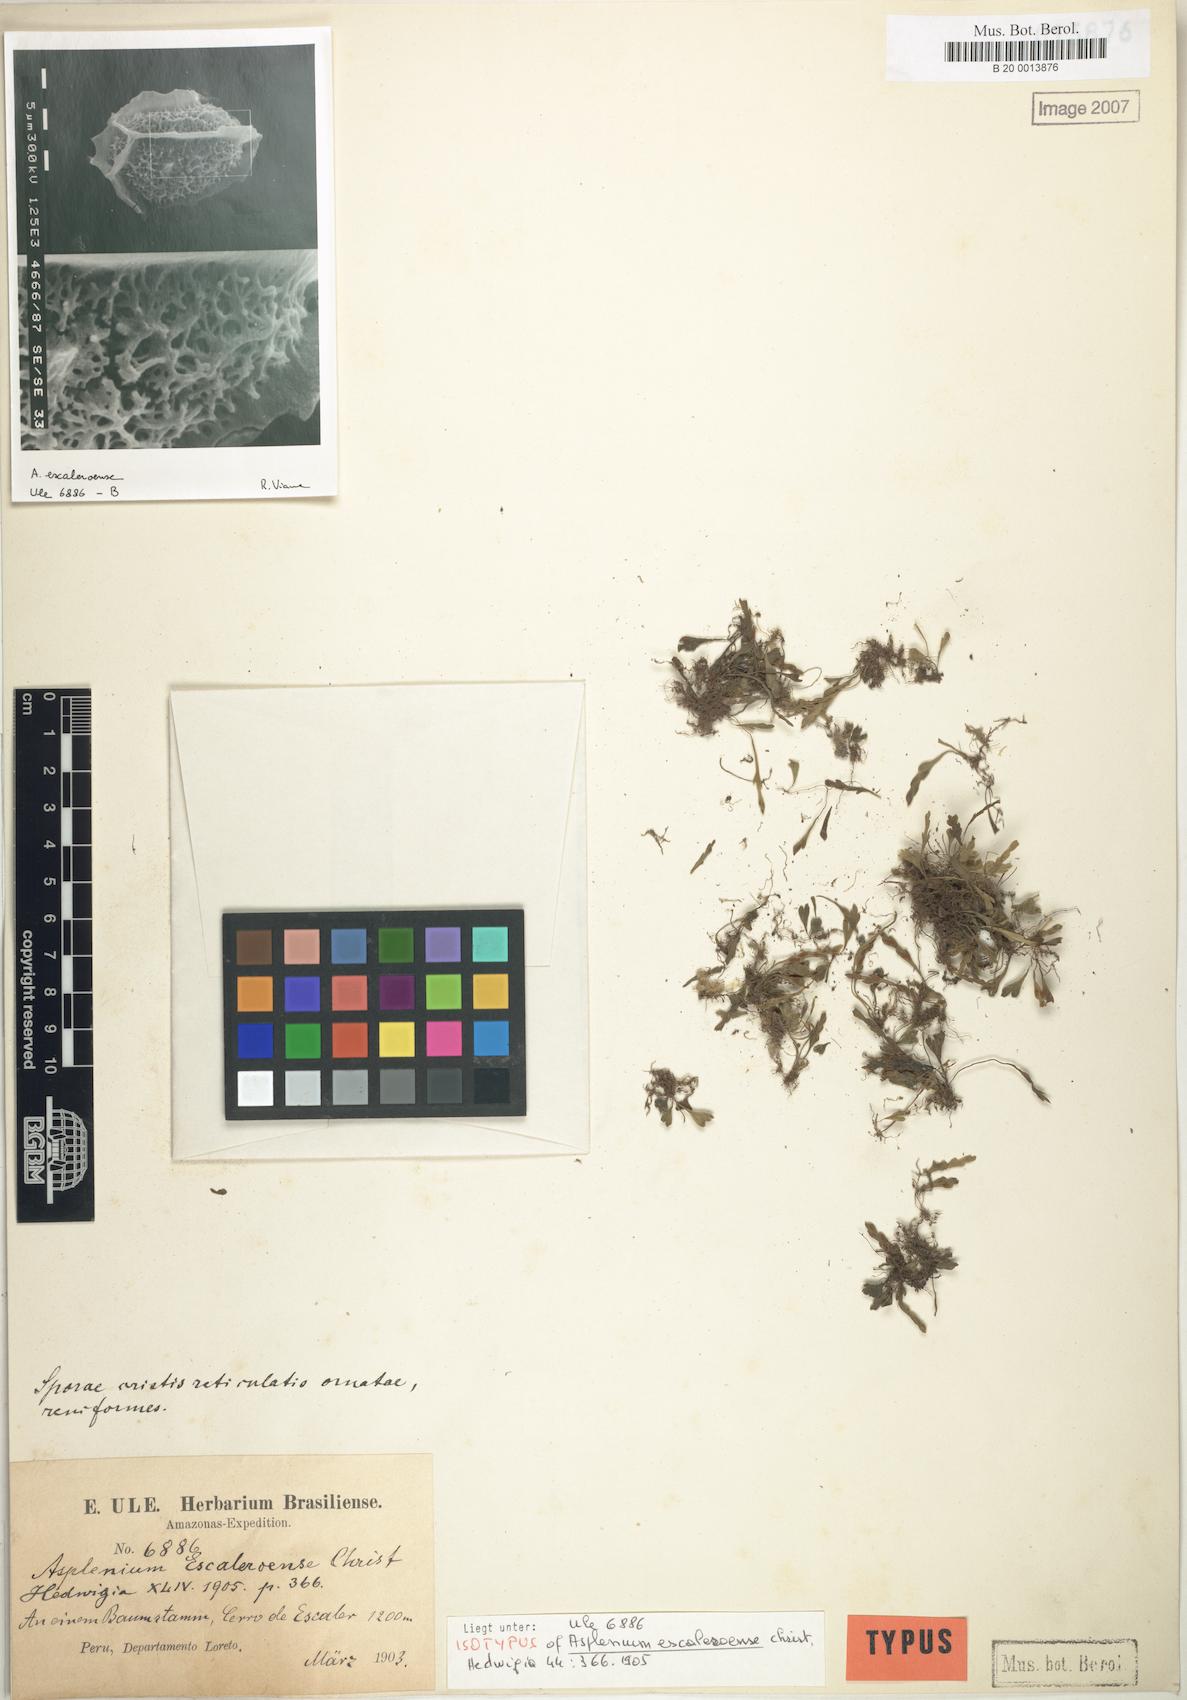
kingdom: Plantae
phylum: Tracheophyta
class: Polypodiopsida
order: Polypodiales
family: Aspleniaceae
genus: Asplenium
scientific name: Asplenium escaleroense
